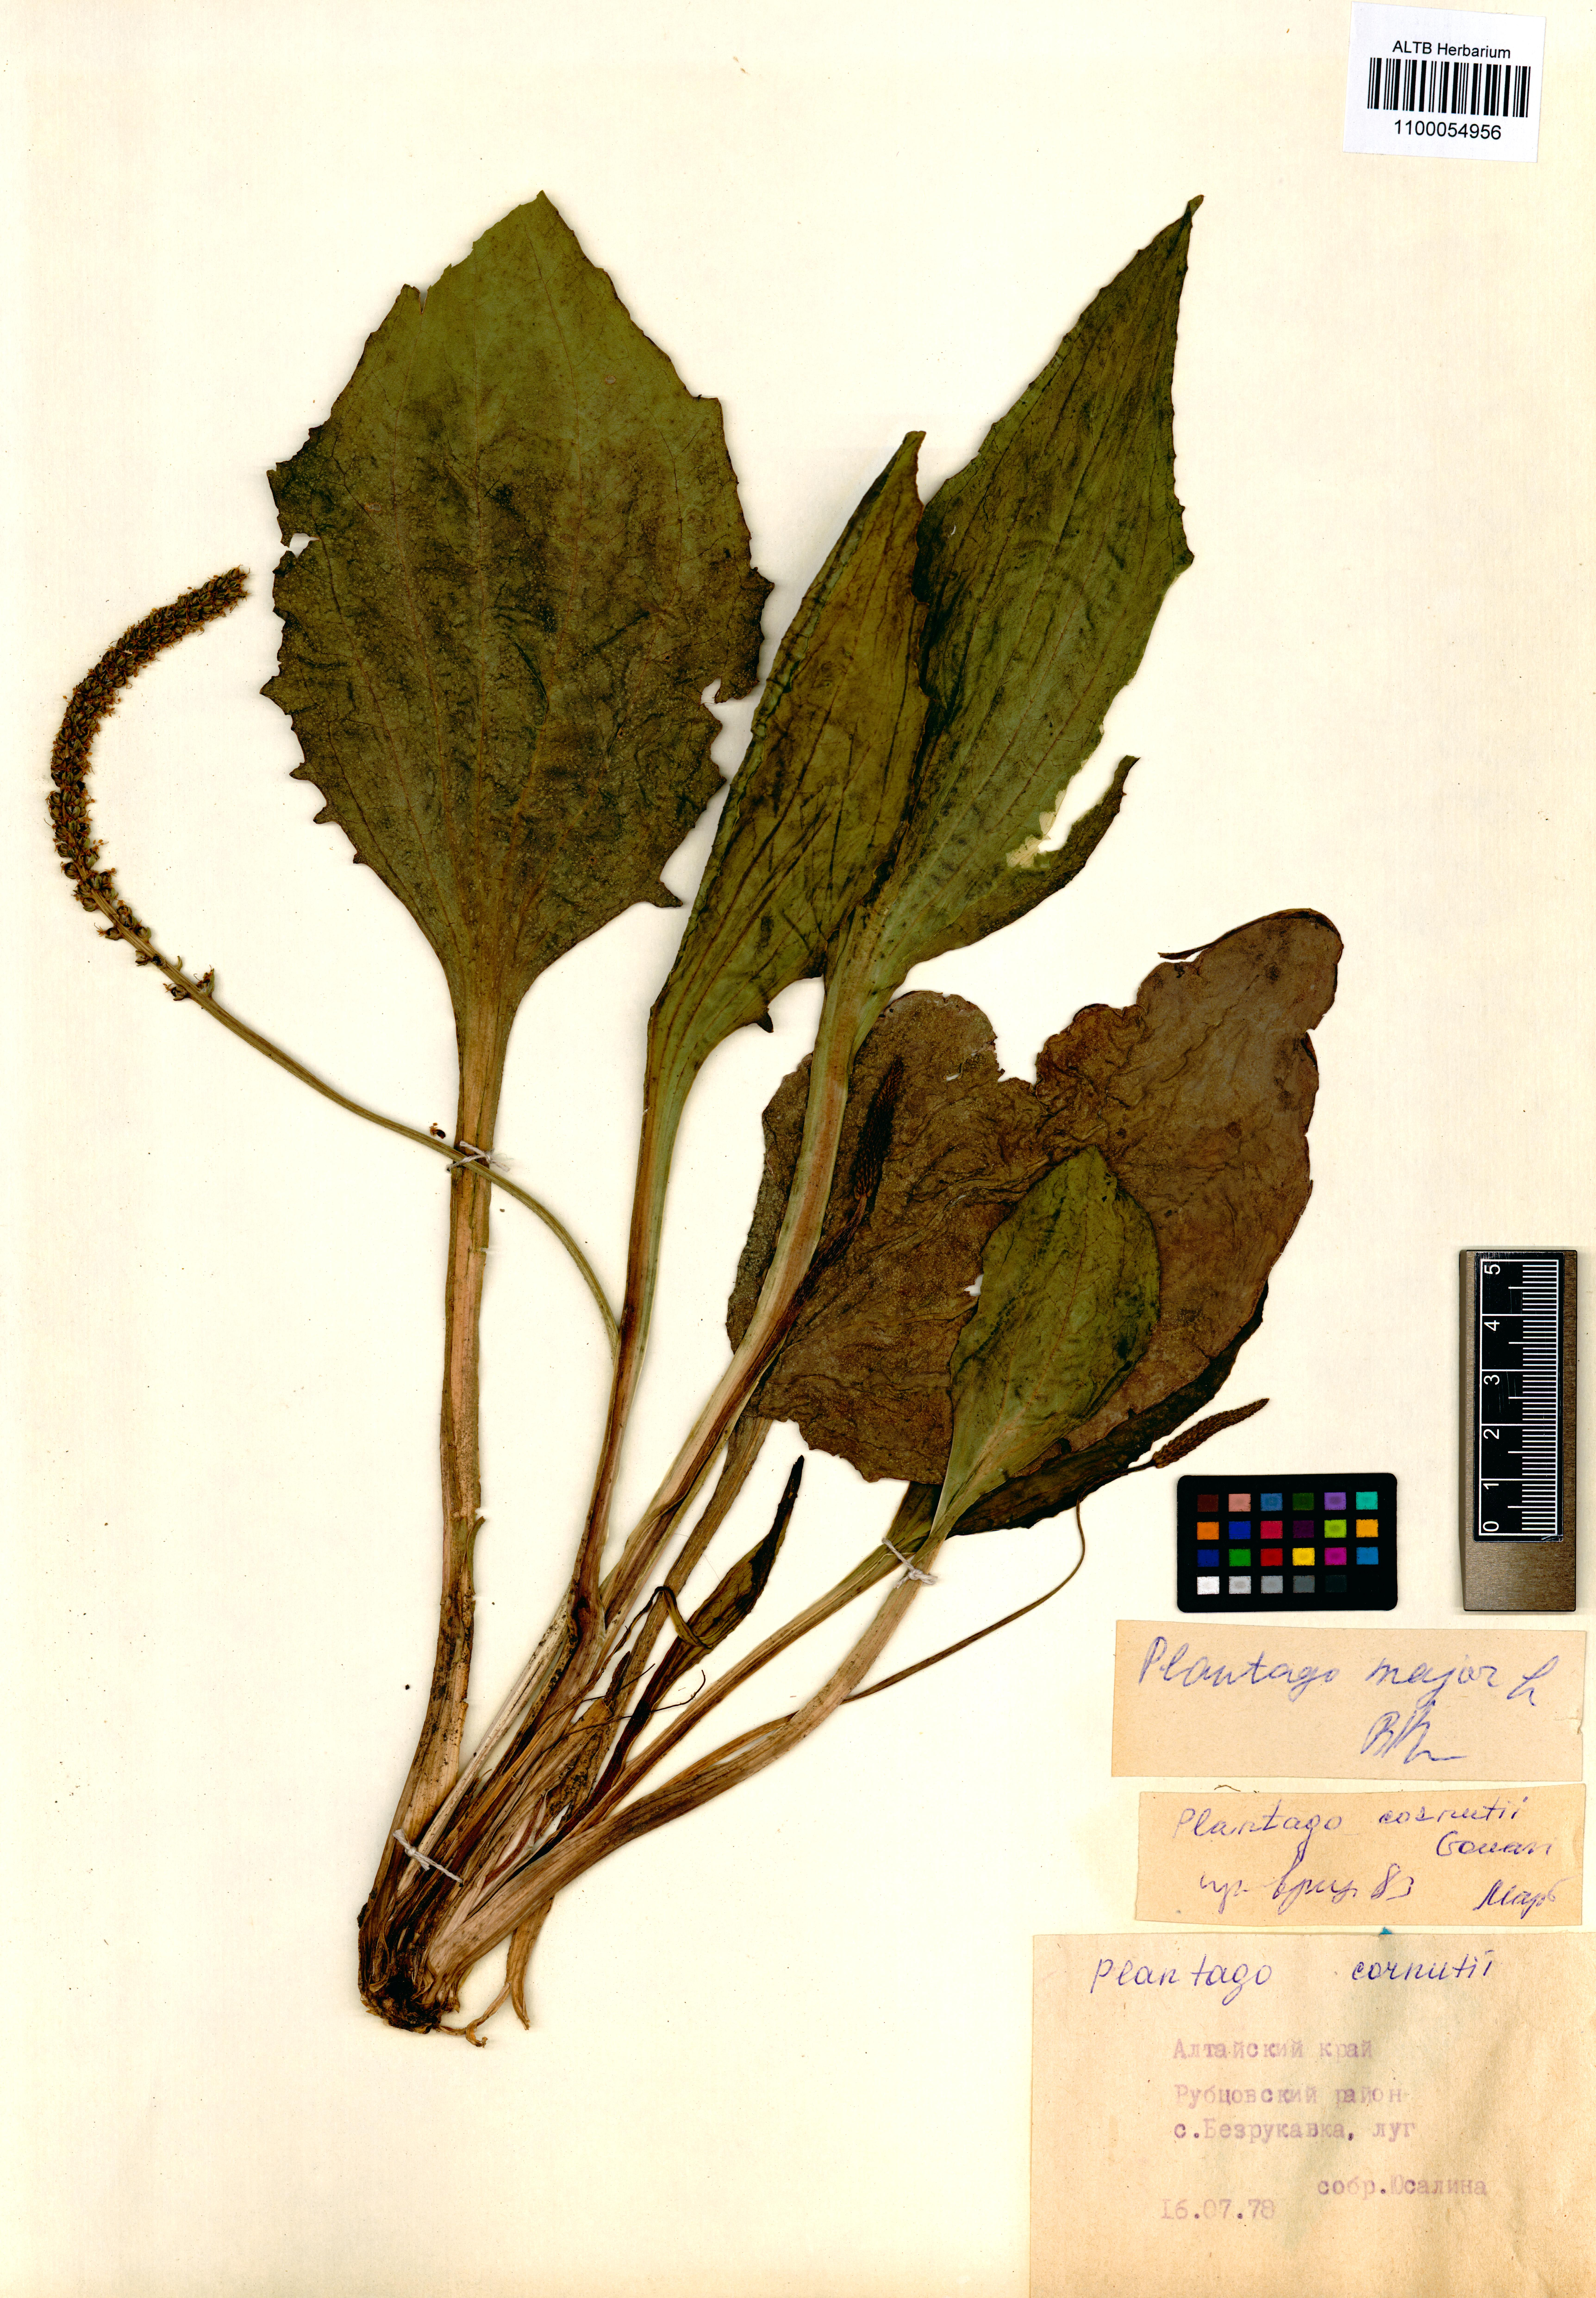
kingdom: Plantae
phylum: Tracheophyta
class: Magnoliopsida
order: Lamiales
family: Plantaginaceae
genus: Plantago
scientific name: Plantago major
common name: Common plantain
